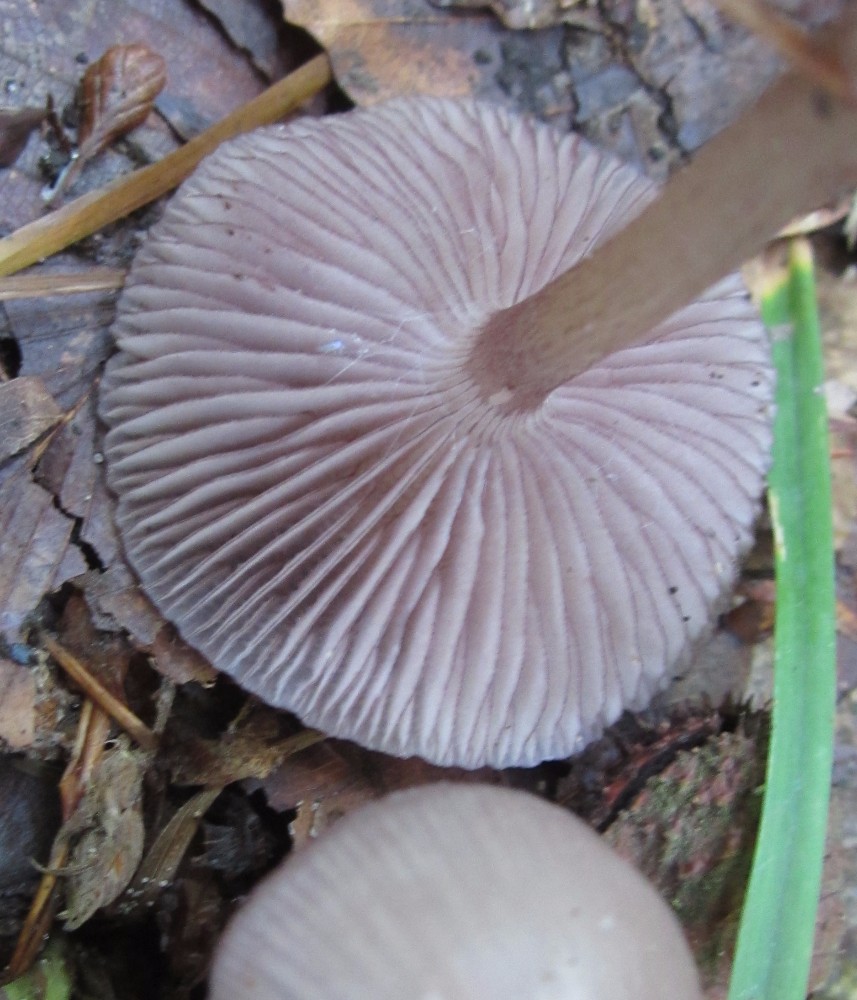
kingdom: Fungi
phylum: Basidiomycota
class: Agaricomycetes
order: Agaricales
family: Mycenaceae
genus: Mycena
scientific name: Mycena pelianthina
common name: mørkbladet huesvamp
